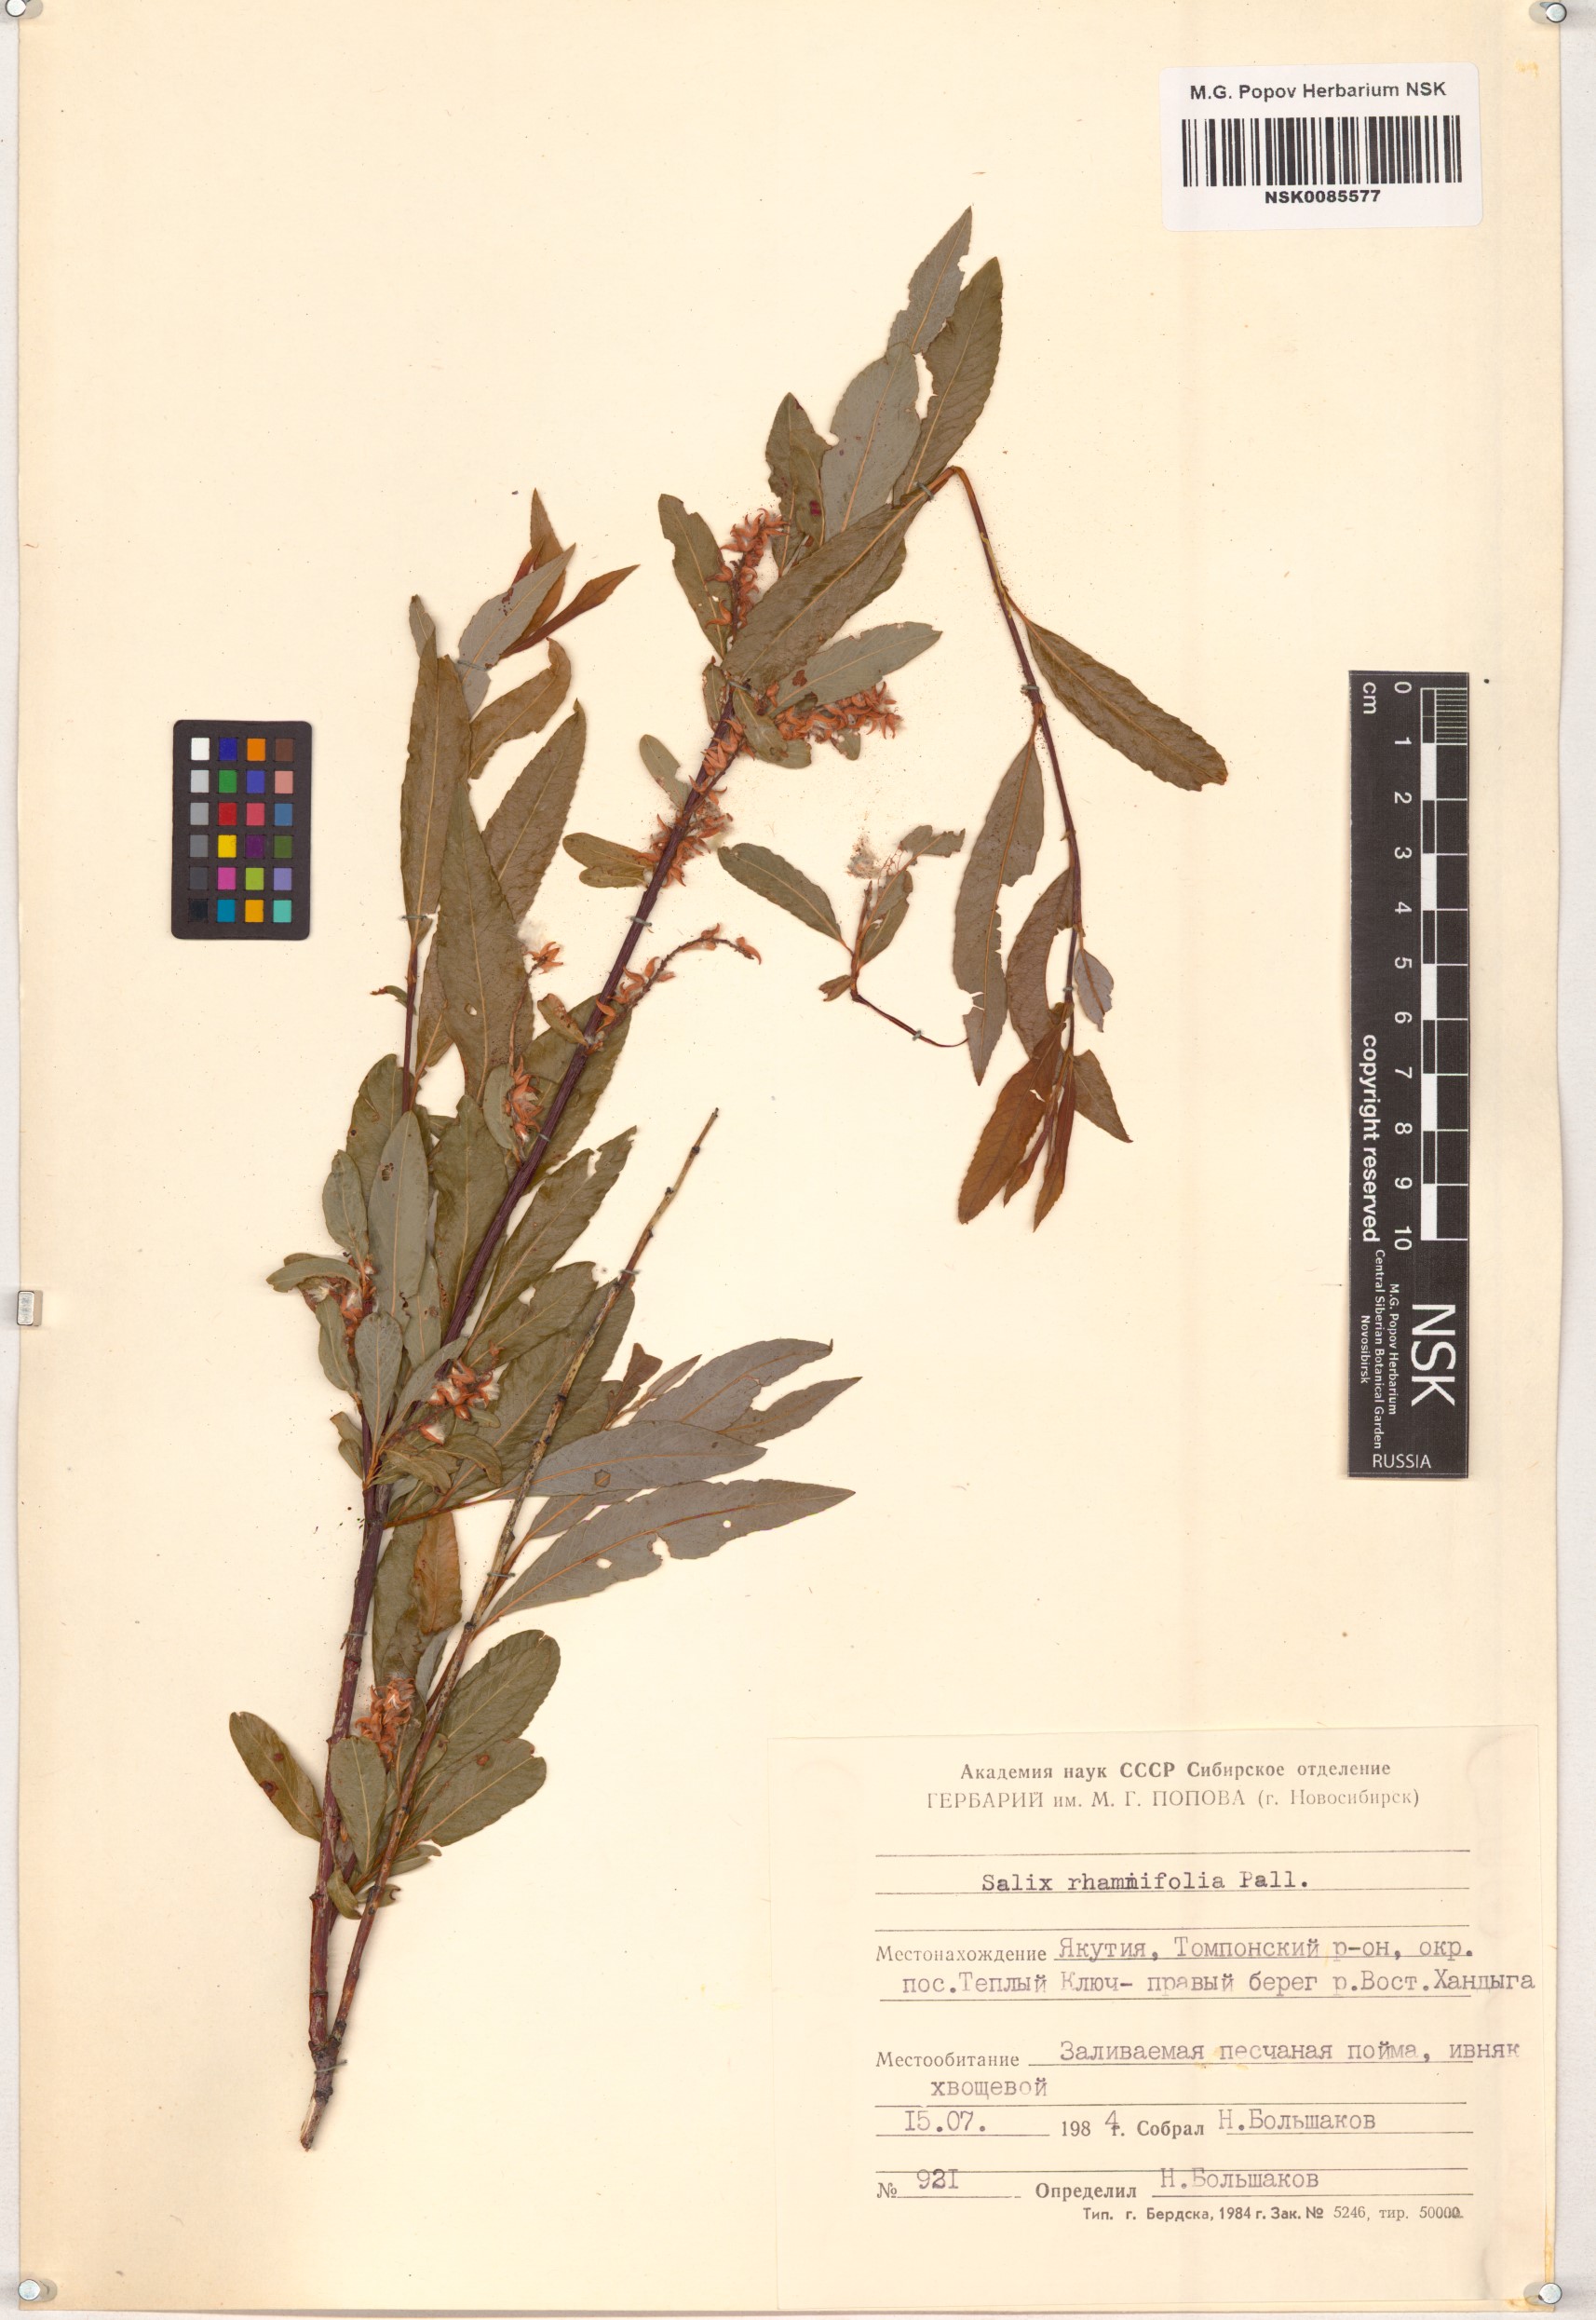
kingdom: Plantae
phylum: Tracheophyta
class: Magnoliopsida
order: Malpighiales
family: Salicaceae
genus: Salix
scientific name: Salix rhamnifolia
